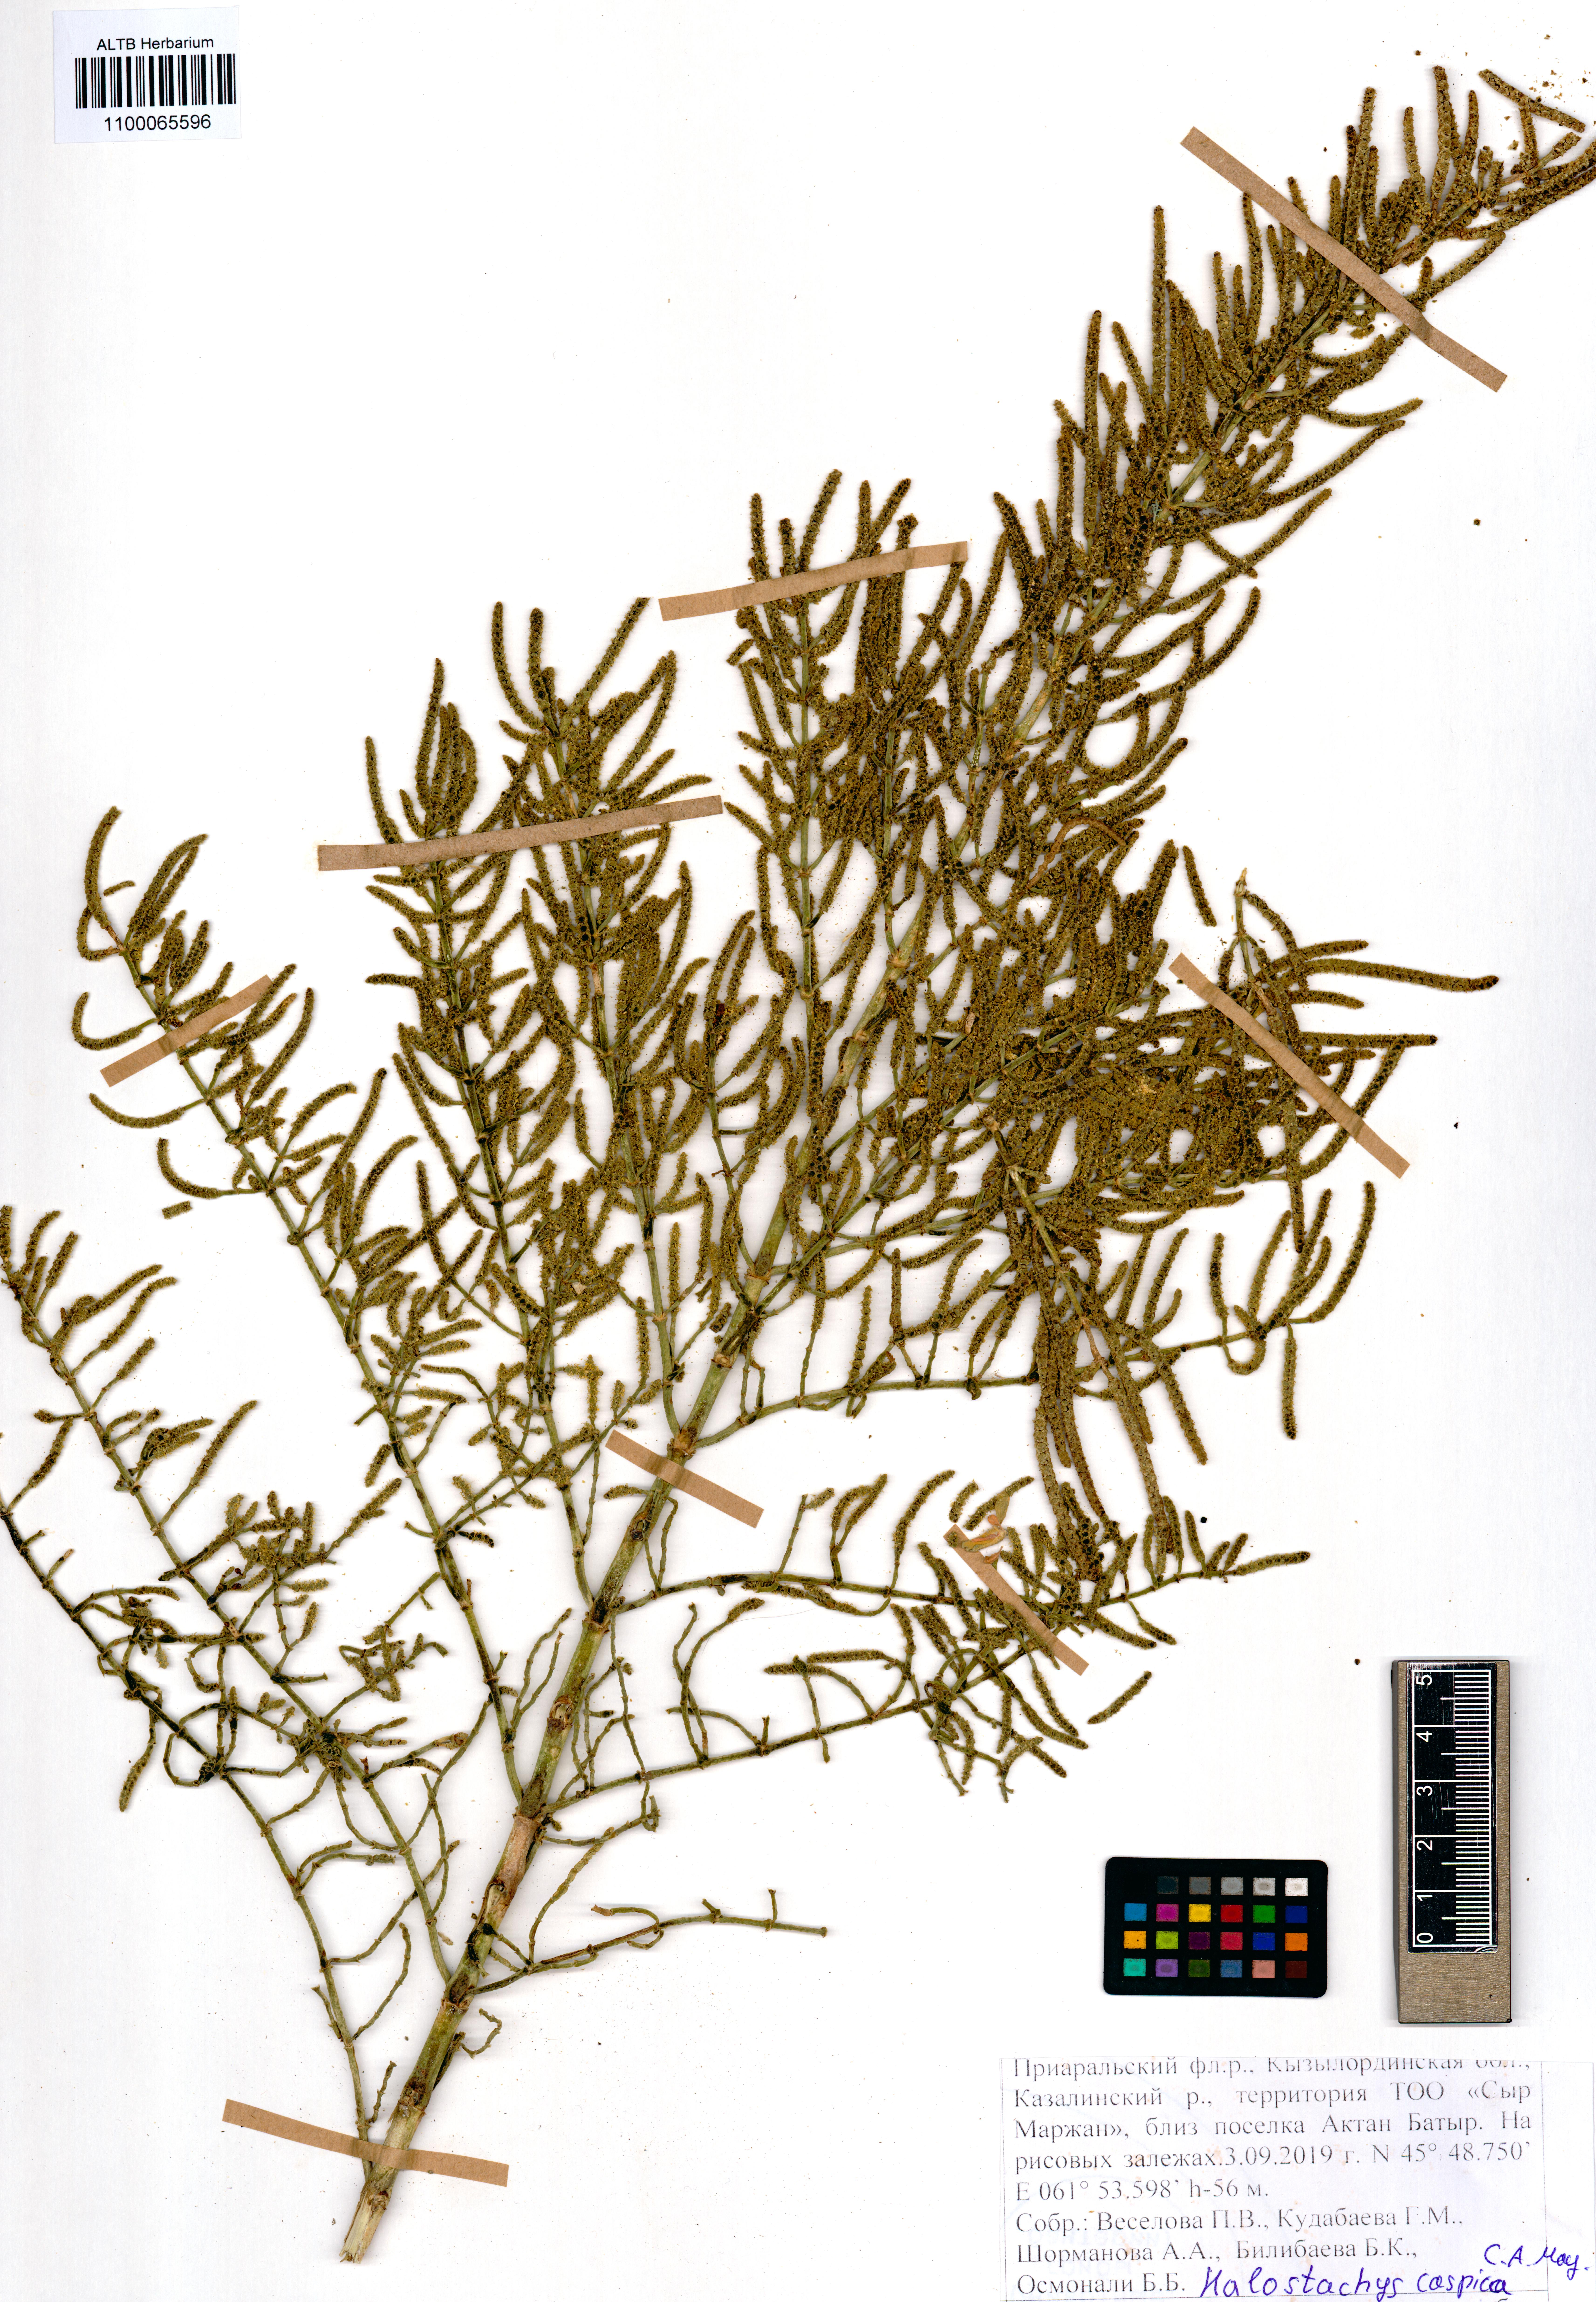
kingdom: Plantae
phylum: Tracheophyta
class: Magnoliopsida
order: Caryophyllales
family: Amaranthaceae
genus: Halostachys
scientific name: Halostachys caspica
